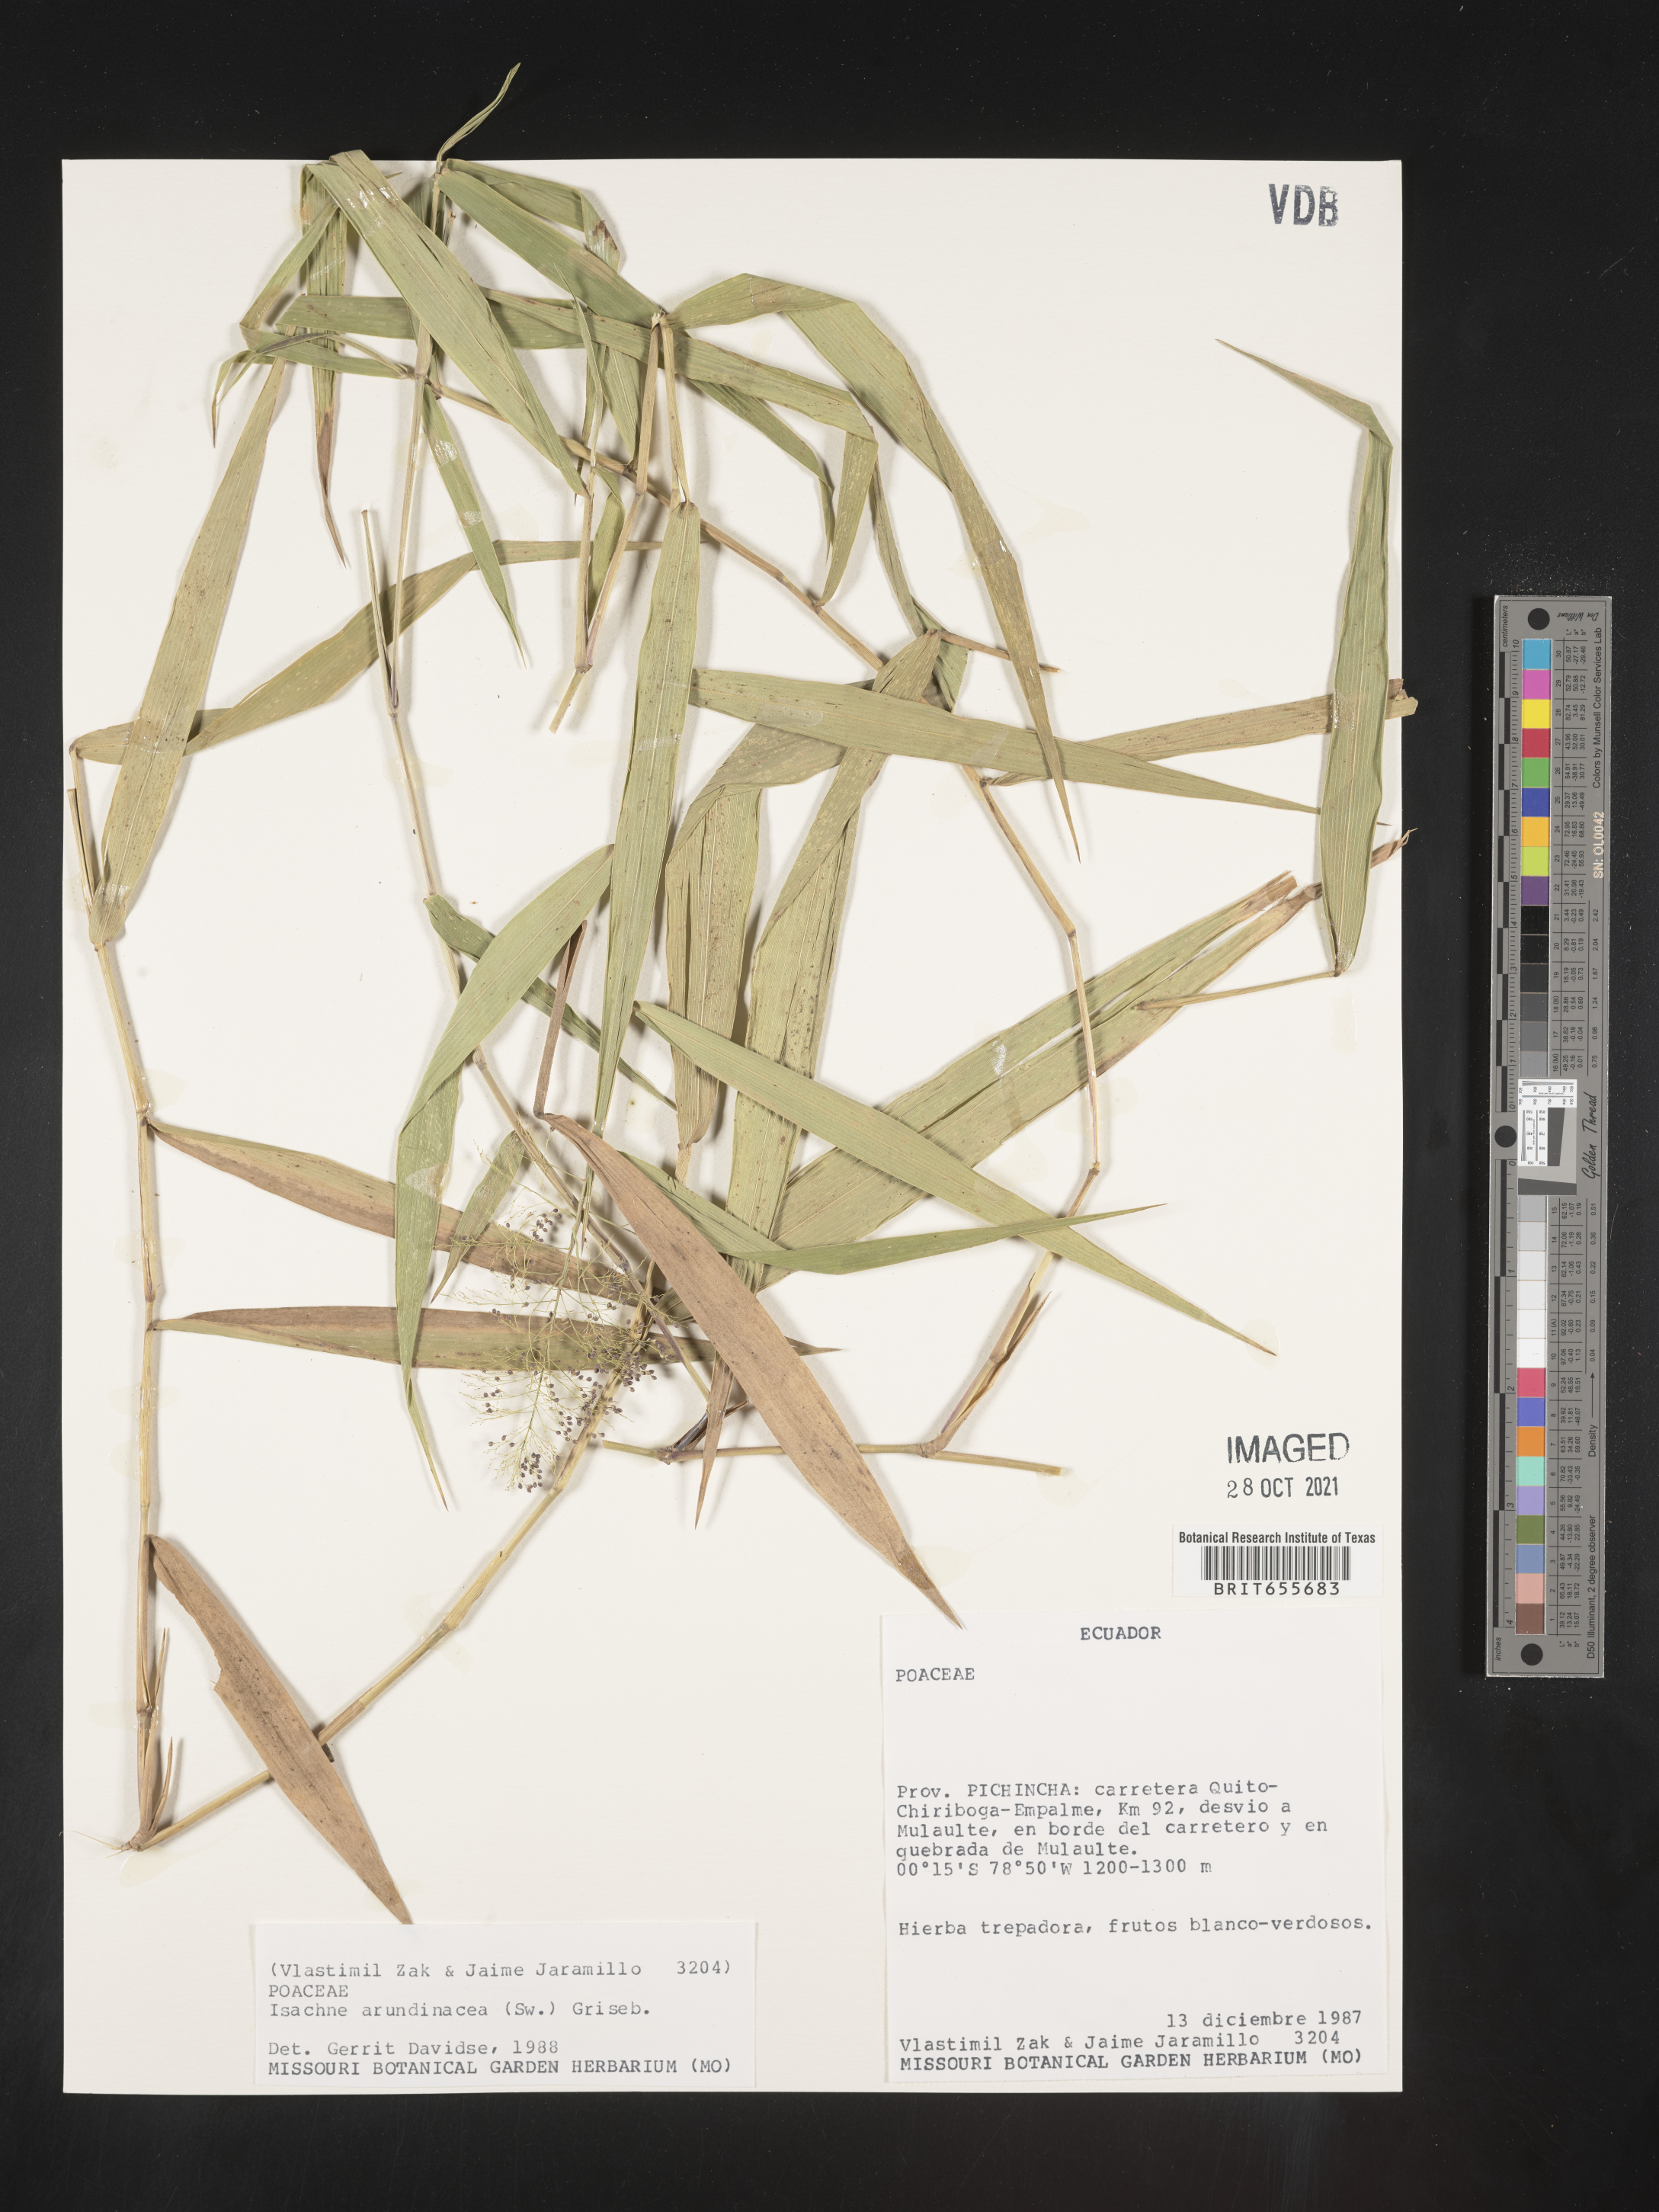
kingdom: Plantae
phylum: Tracheophyta
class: Liliopsida
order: Poales
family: Poaceae
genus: Isachne
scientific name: Isachne
